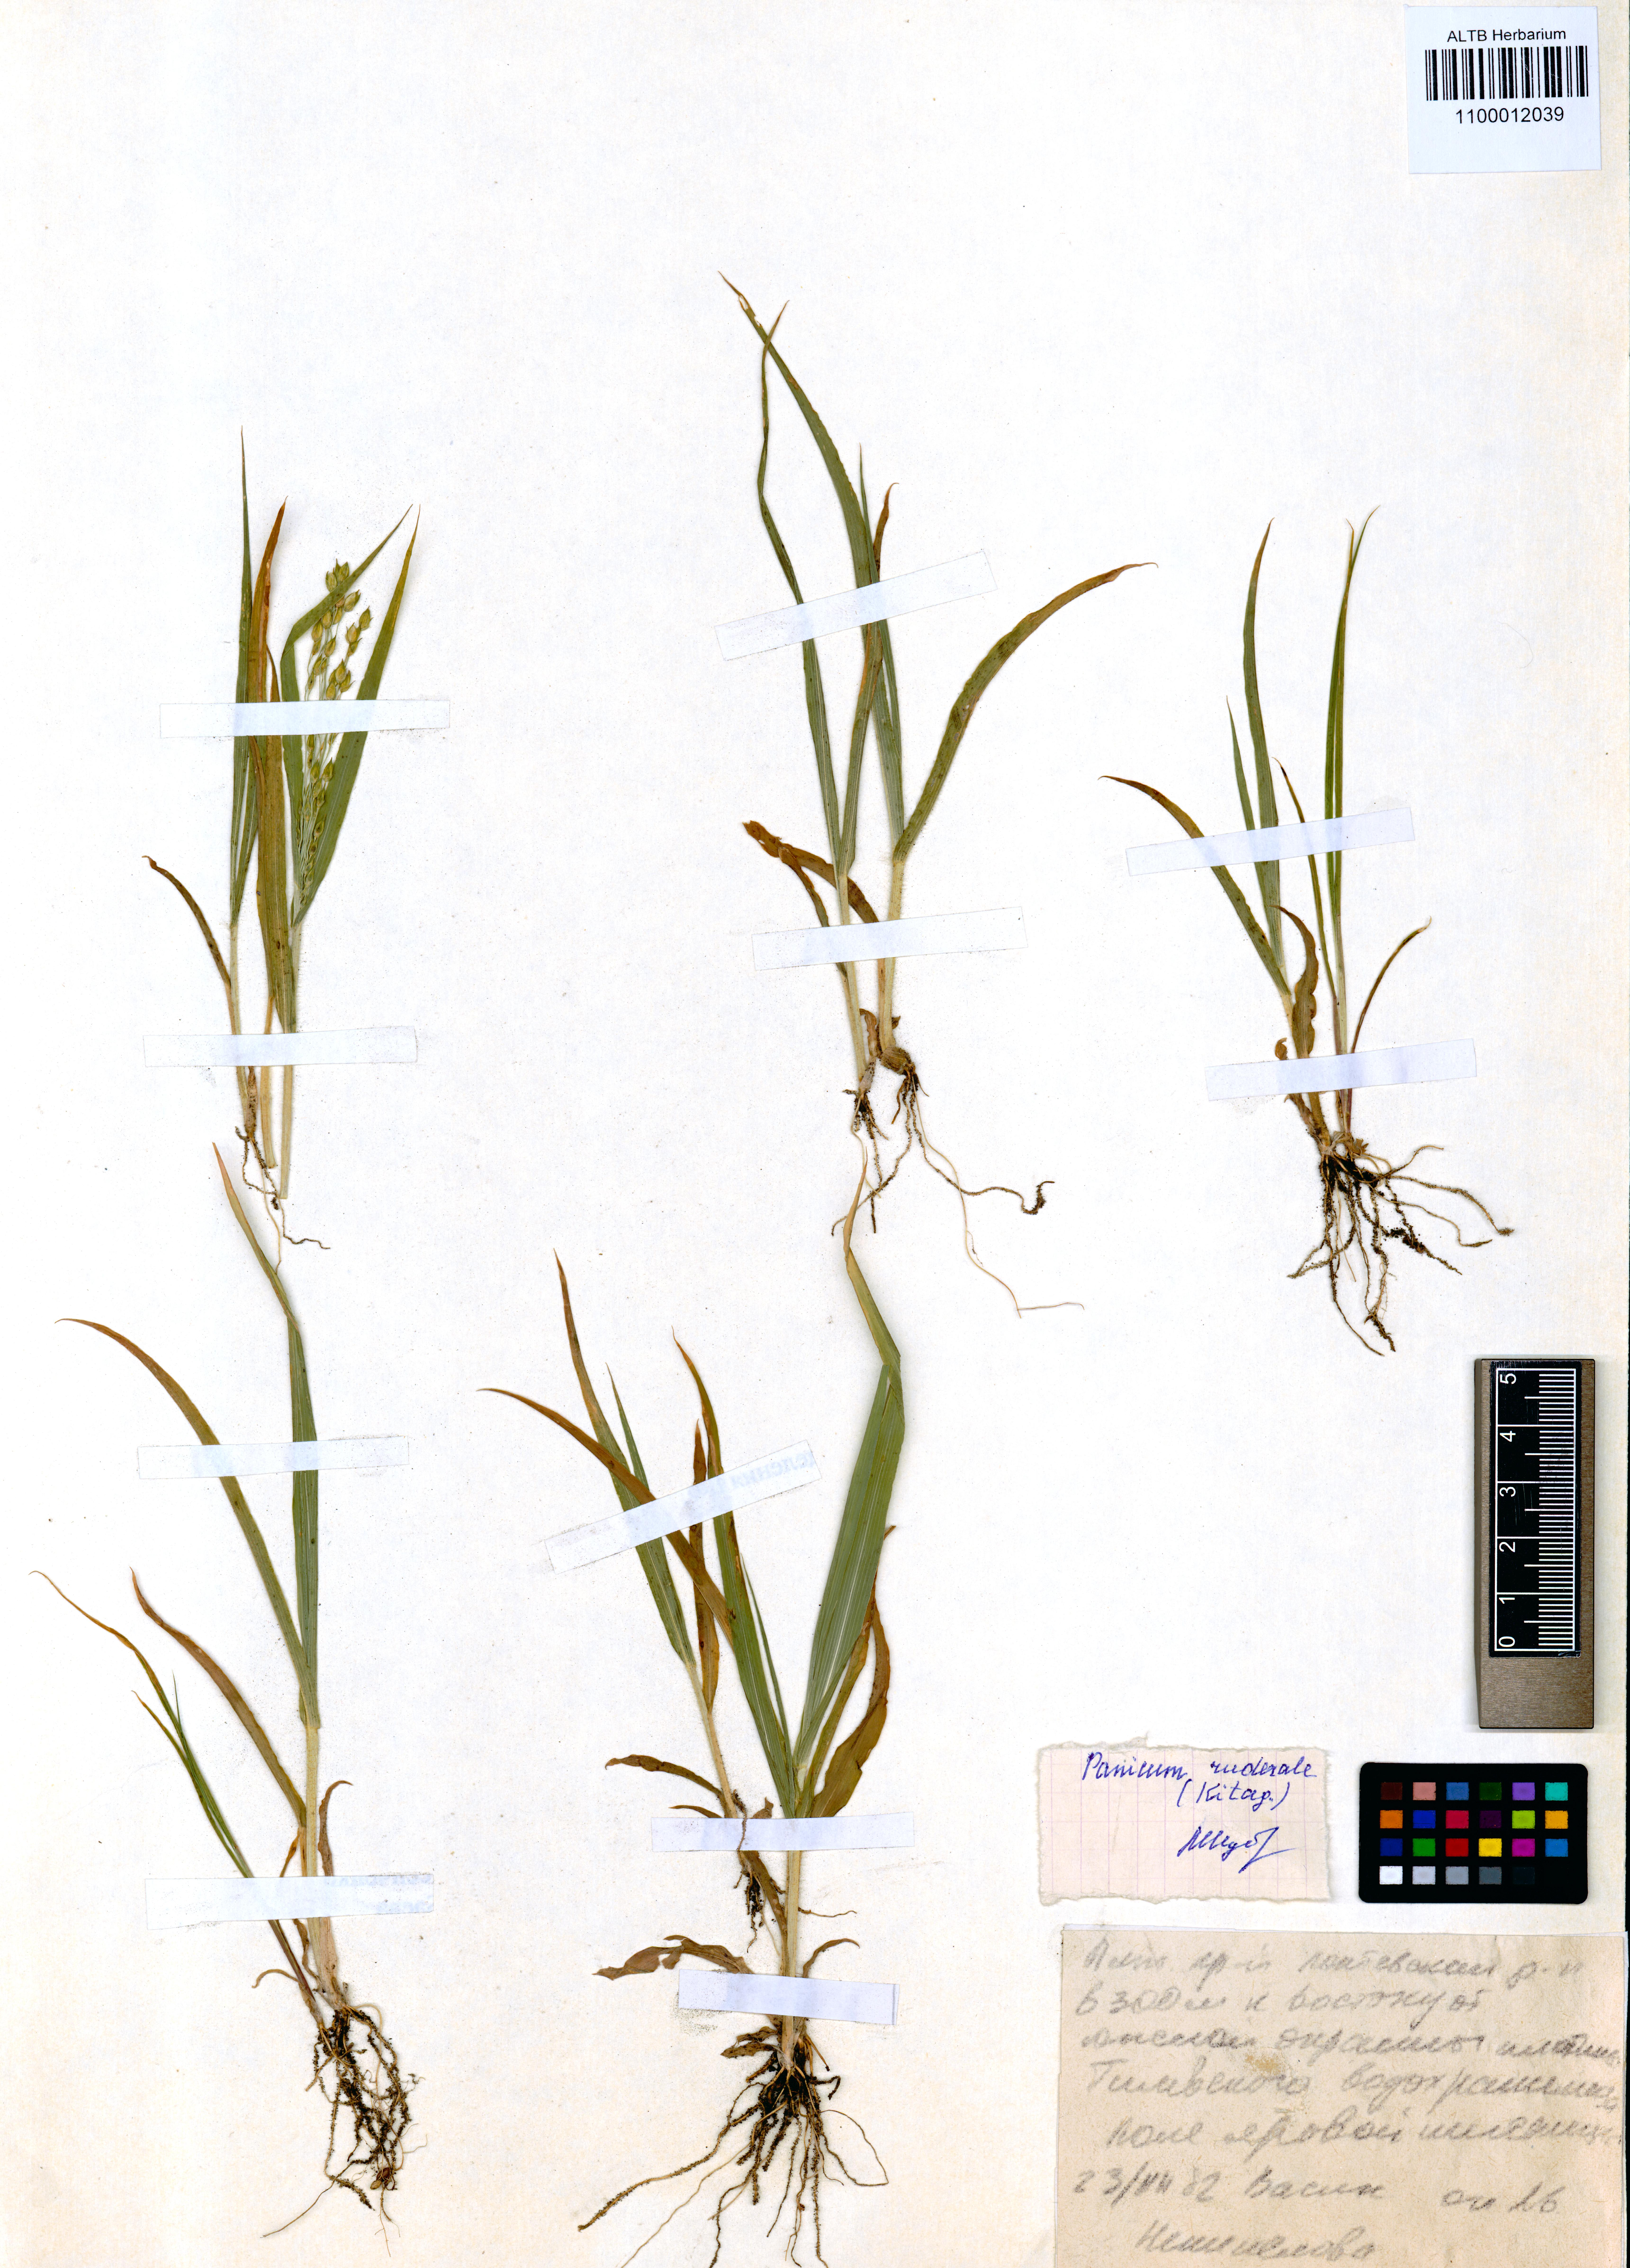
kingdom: Plantae
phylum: Tracheophyta
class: Liliopsida
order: Poales
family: Poaceae
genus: Panicum
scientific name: Panicum miliaceum
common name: Common millet
